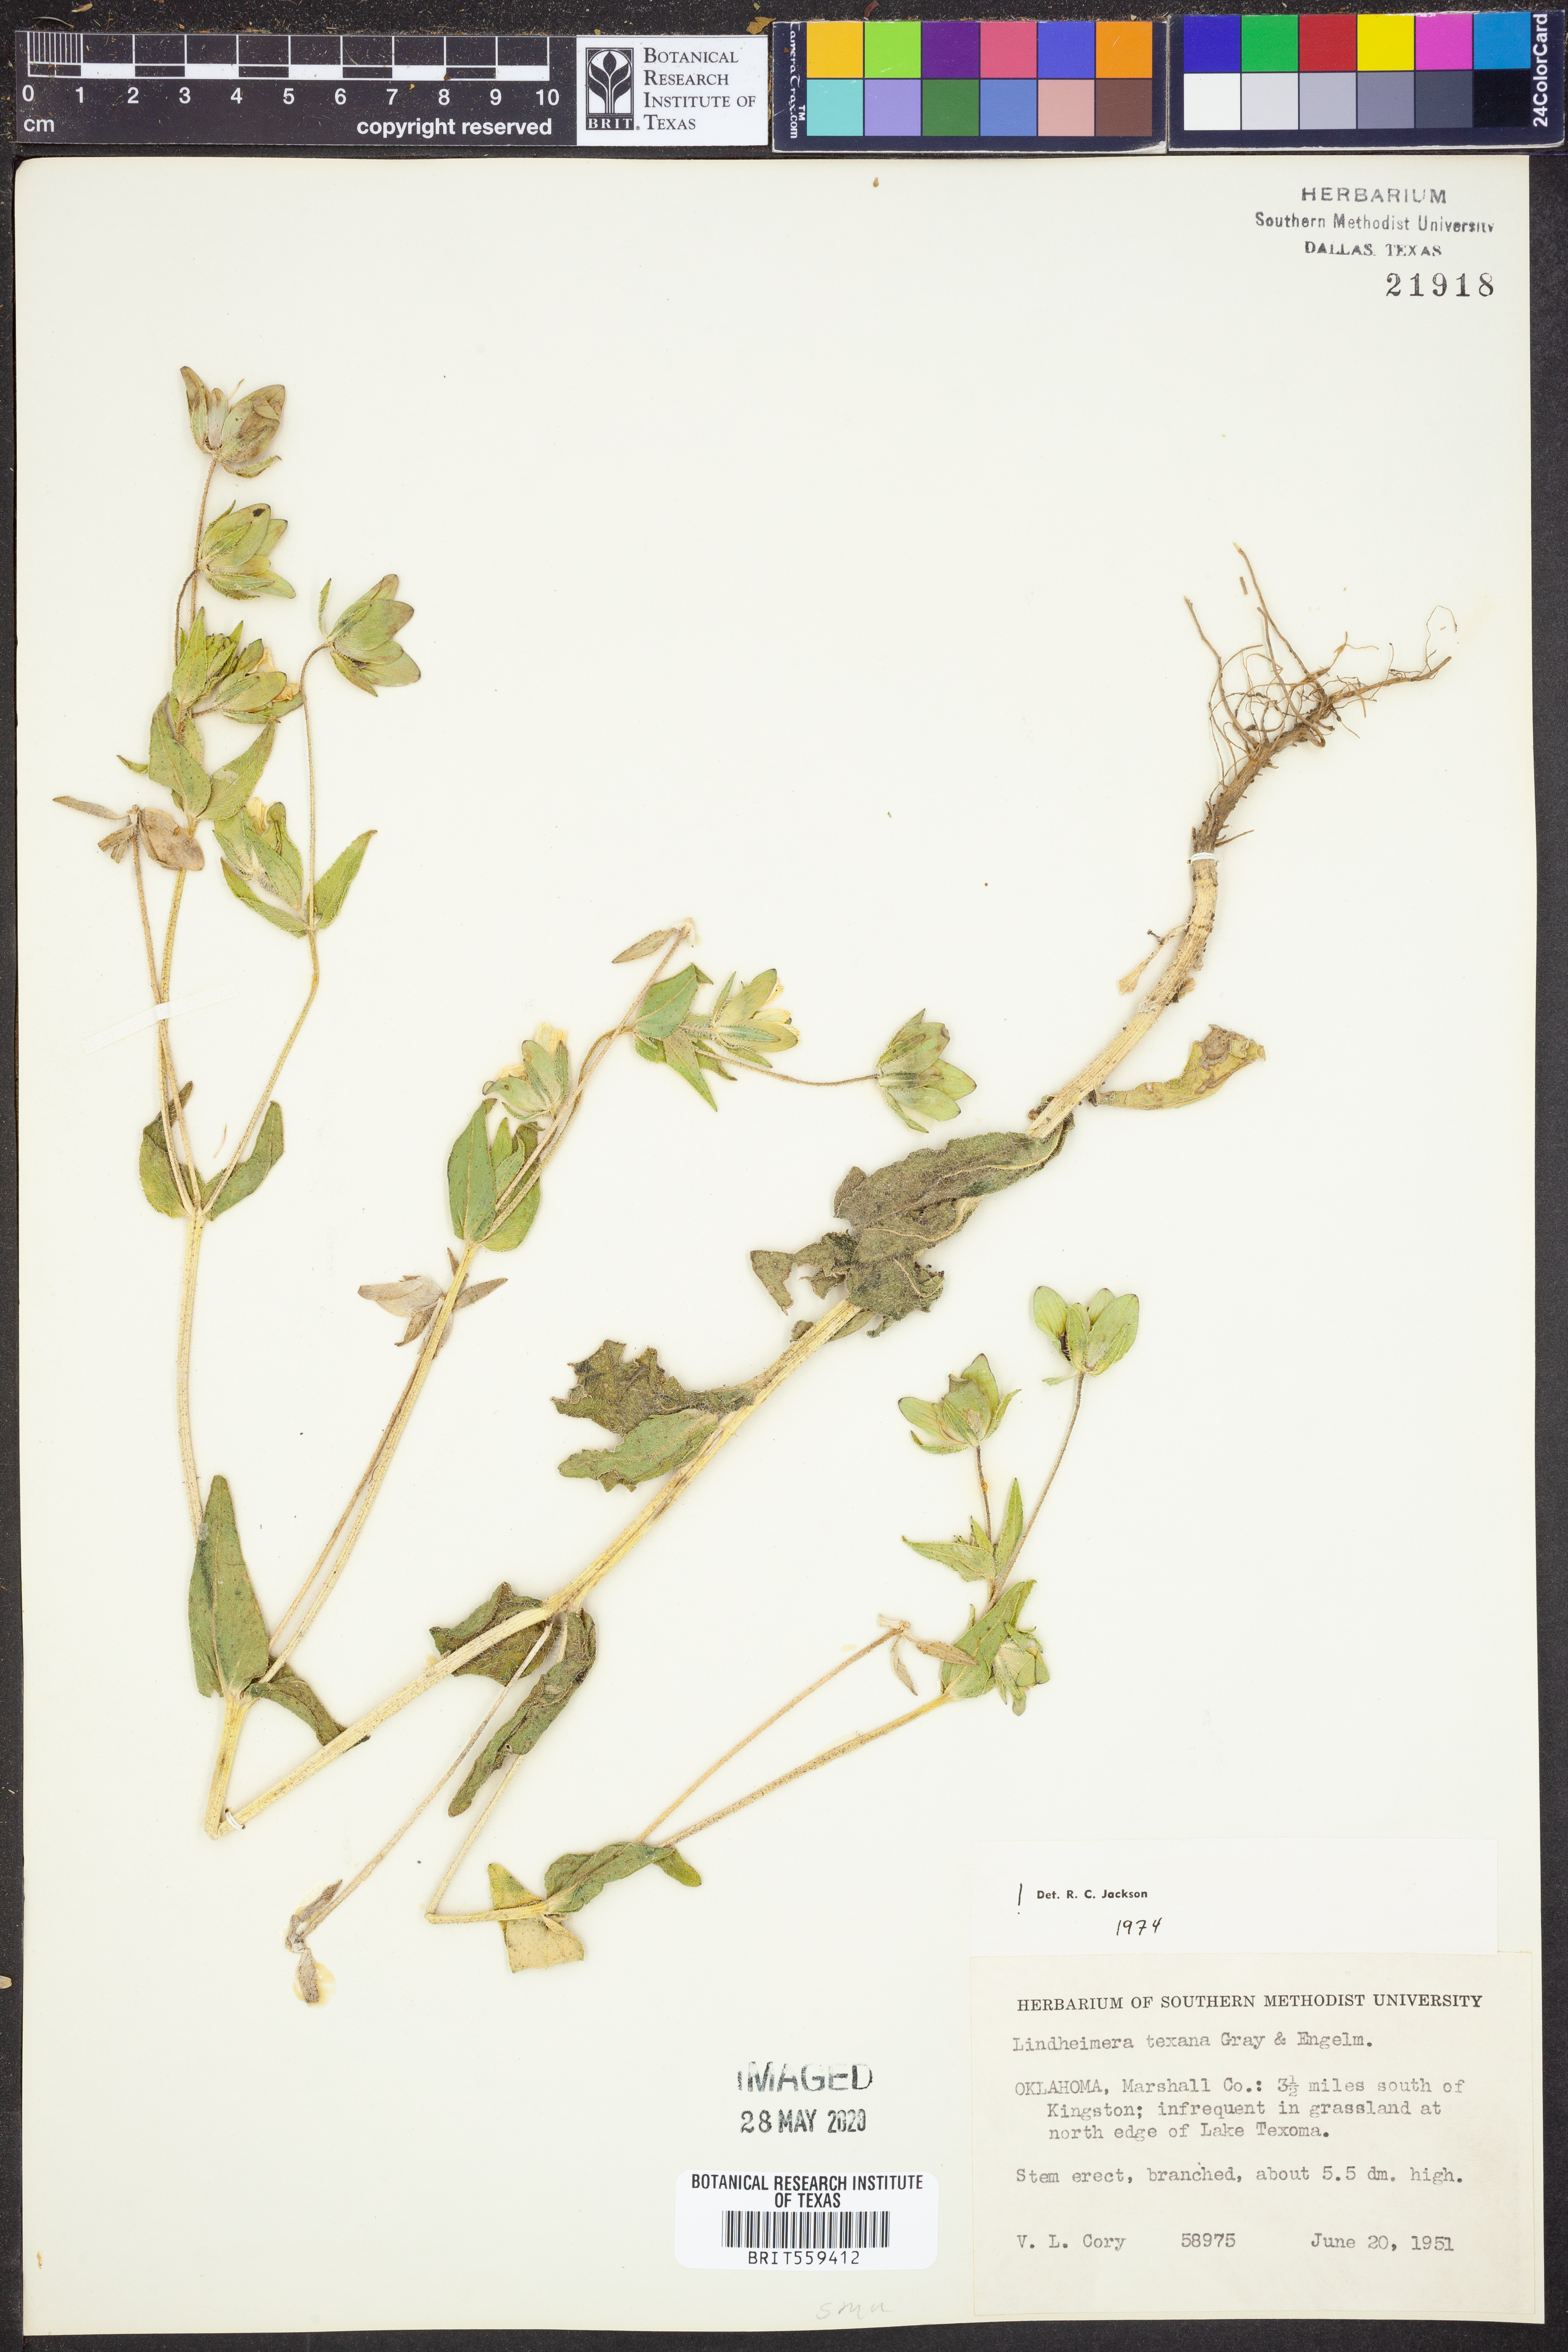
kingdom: Plantae
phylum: Tracheophyta
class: Magnoliopsida
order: Asterales
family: Asteraceae
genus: Lindheimera
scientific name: Lindheimera texana
